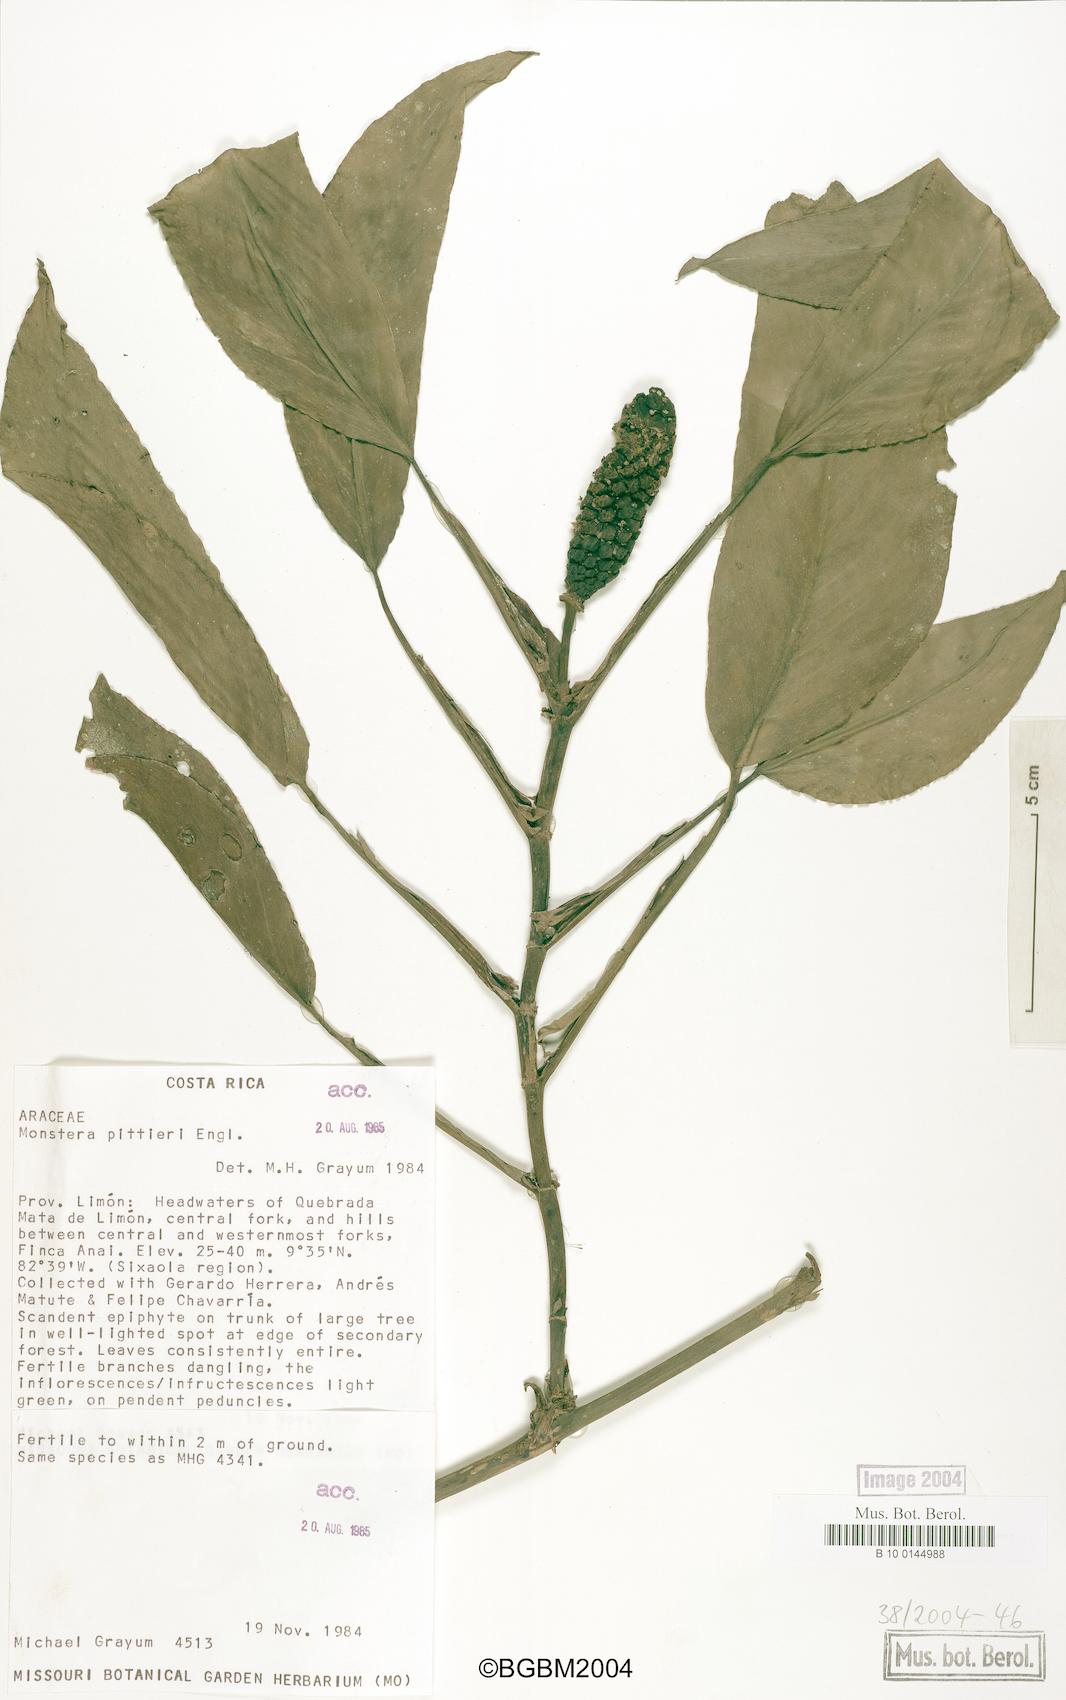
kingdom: Plantae
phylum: Tracheophyta
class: Liliopsida
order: Alismatales
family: Araceae
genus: Monstera
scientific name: Monstera pittieri
